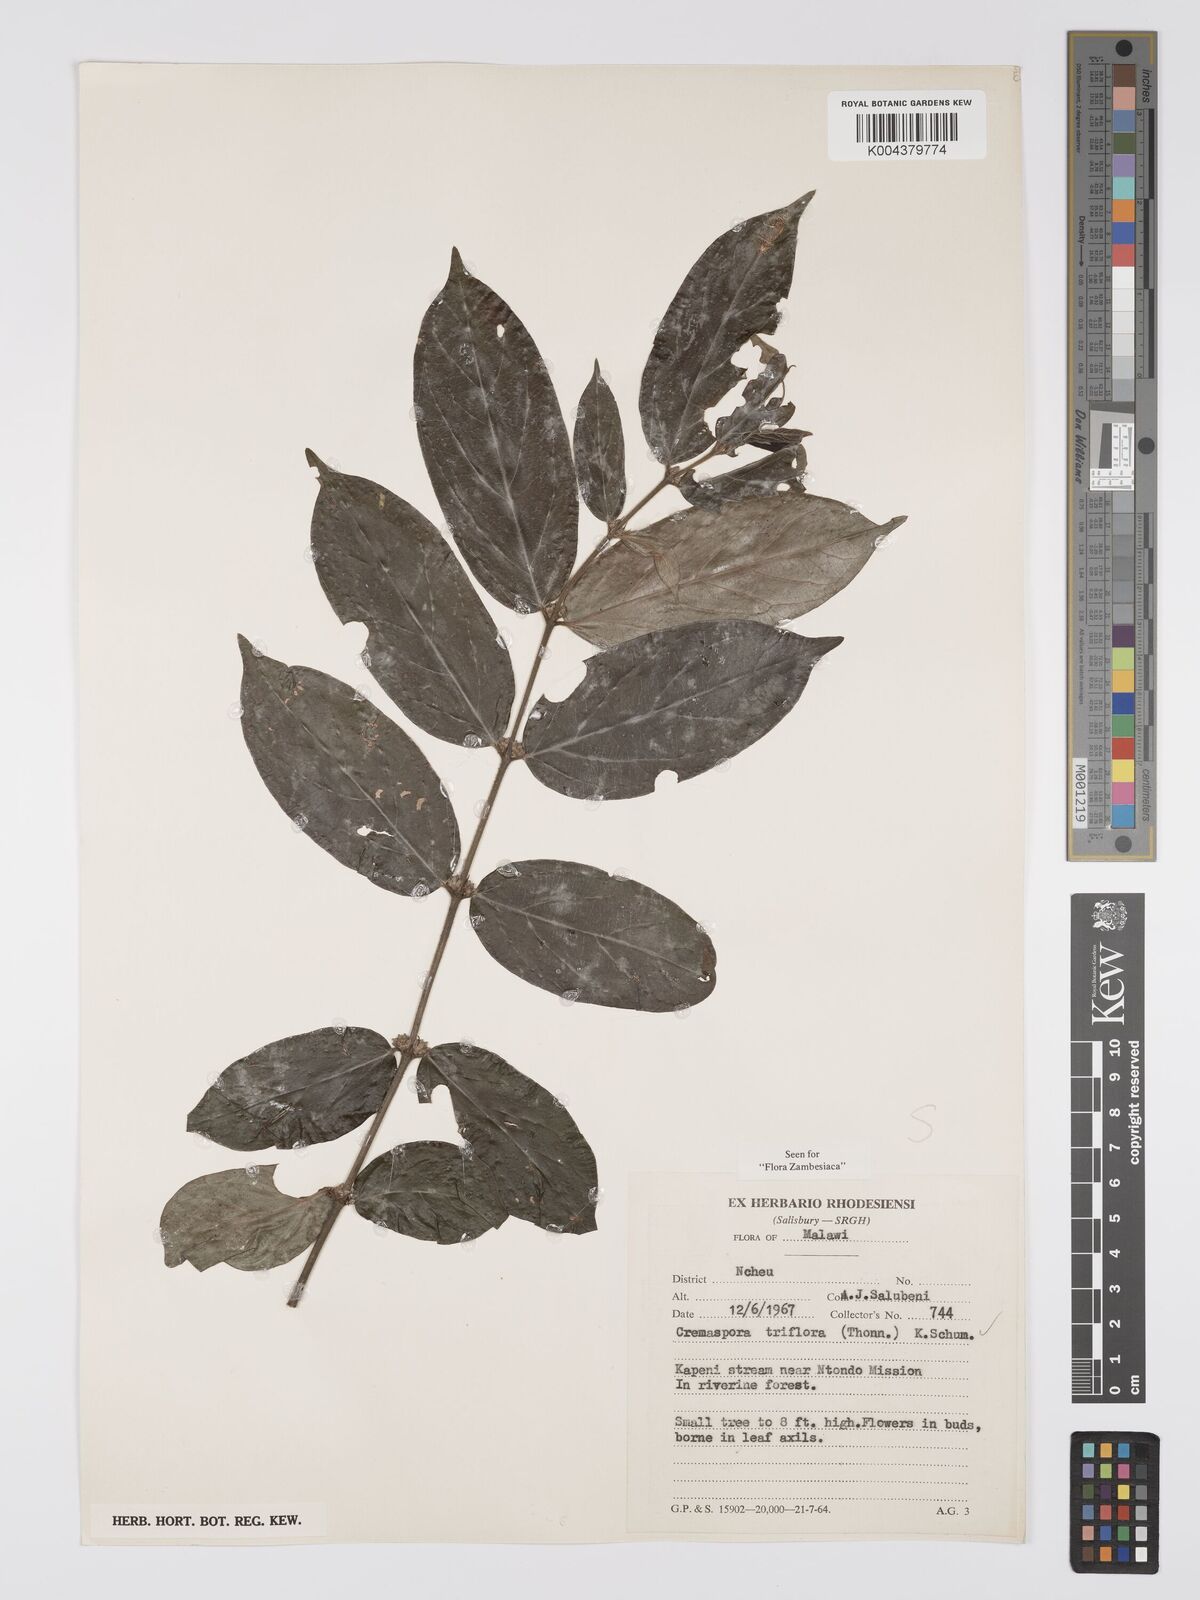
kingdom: Plantae
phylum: Tracheophyta
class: Magnoliopsida
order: Gentianales
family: Rubiaceae
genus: Cremaspora
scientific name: Cremaspora triflora
